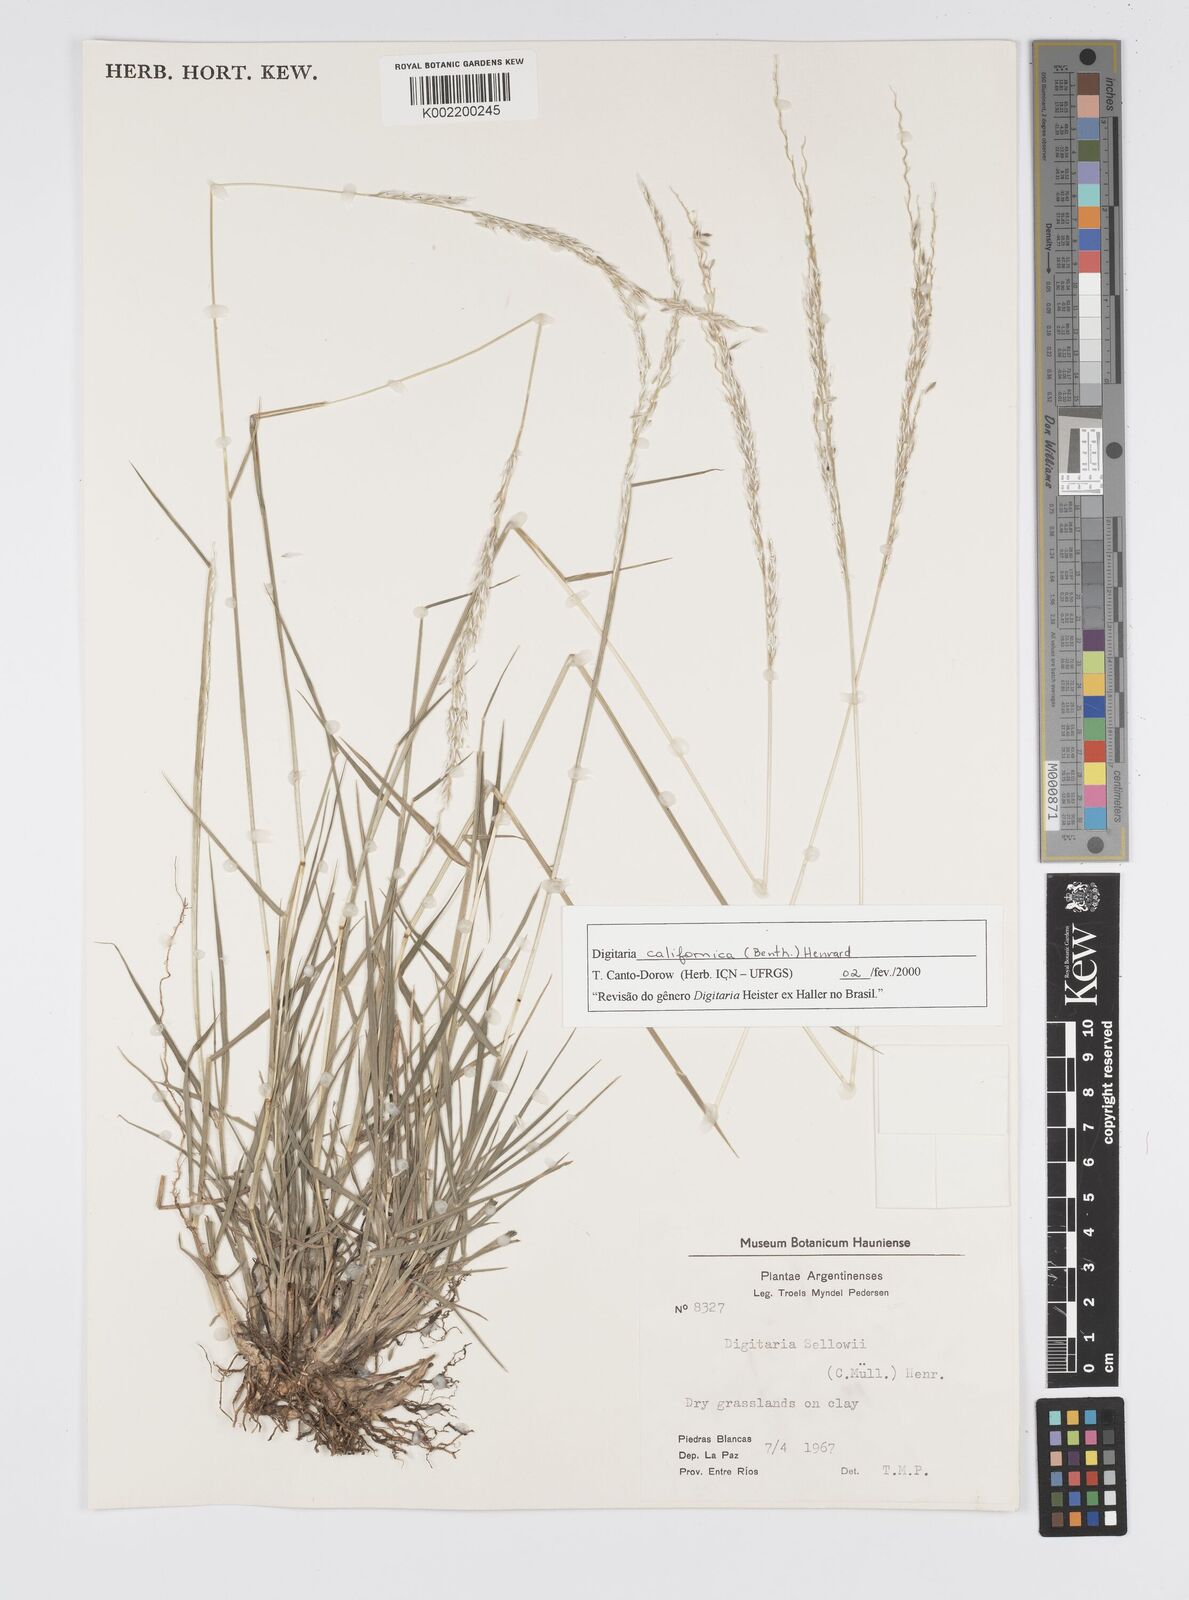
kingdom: Plantae
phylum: Tracheophyta
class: Liliopsida
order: Poales
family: Poaceae
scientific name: Poaceae
